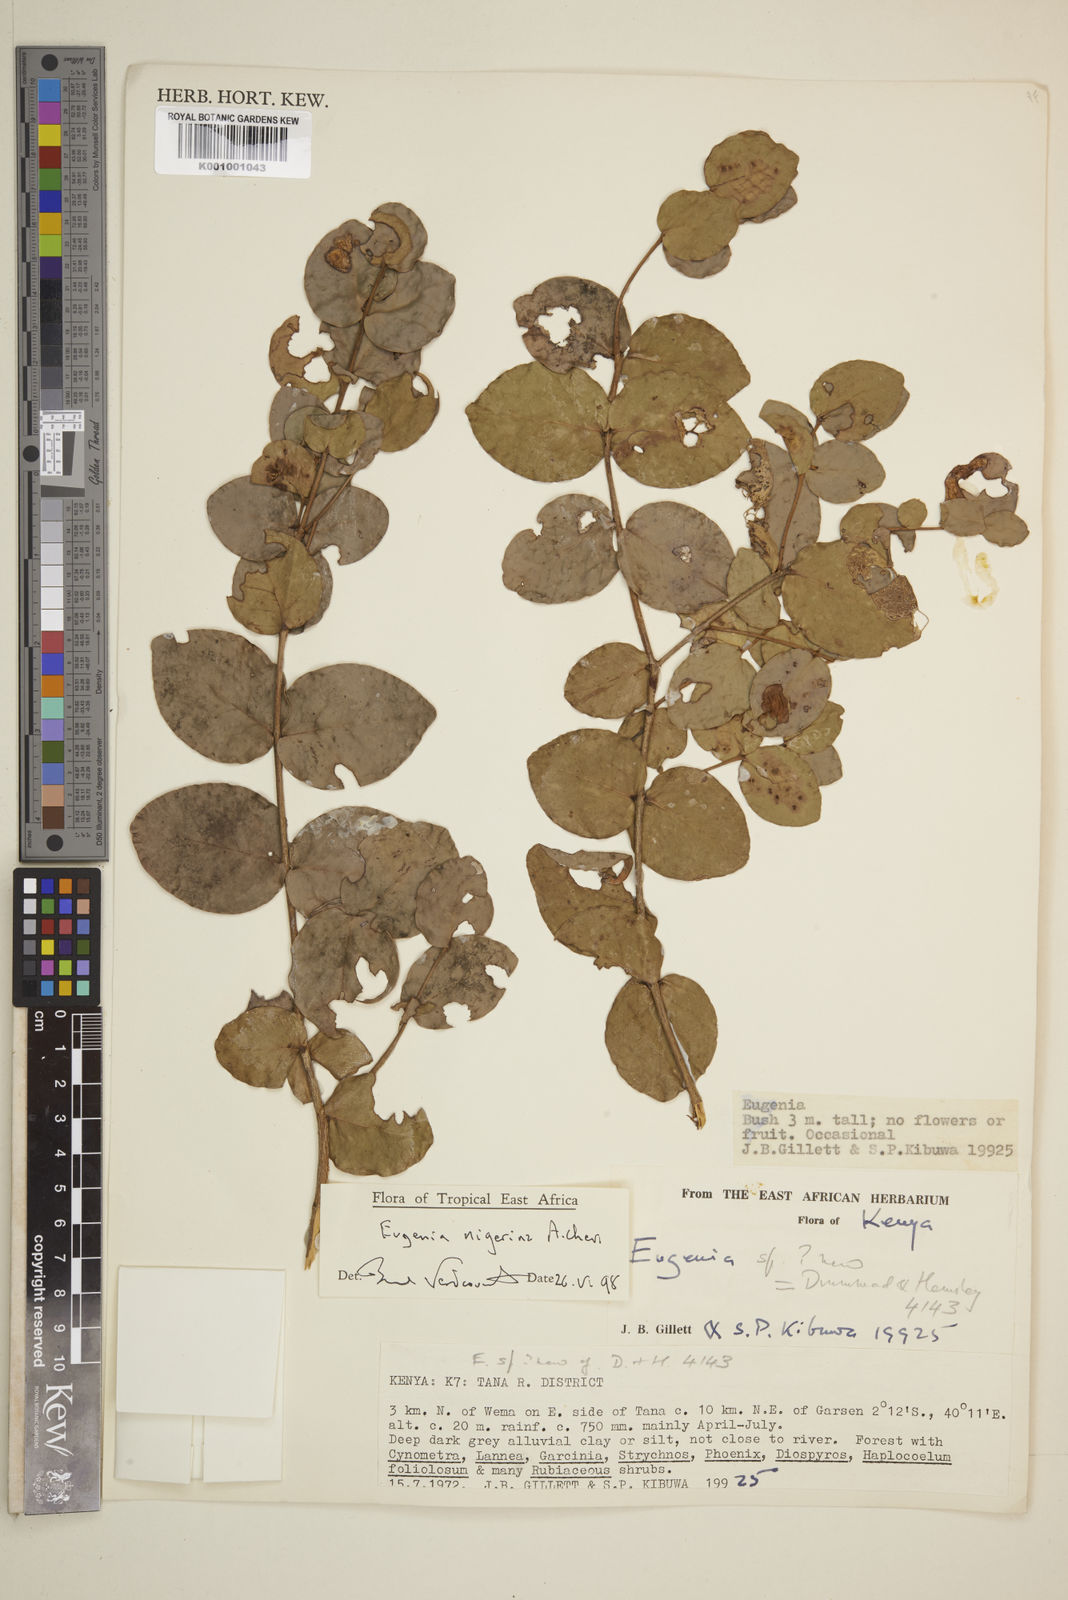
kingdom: Plantae
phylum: Tracheophyta
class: Magnoliopsida
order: Myrtales
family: Myrtaceae
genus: Eugenia
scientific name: Eugenia nigerina
